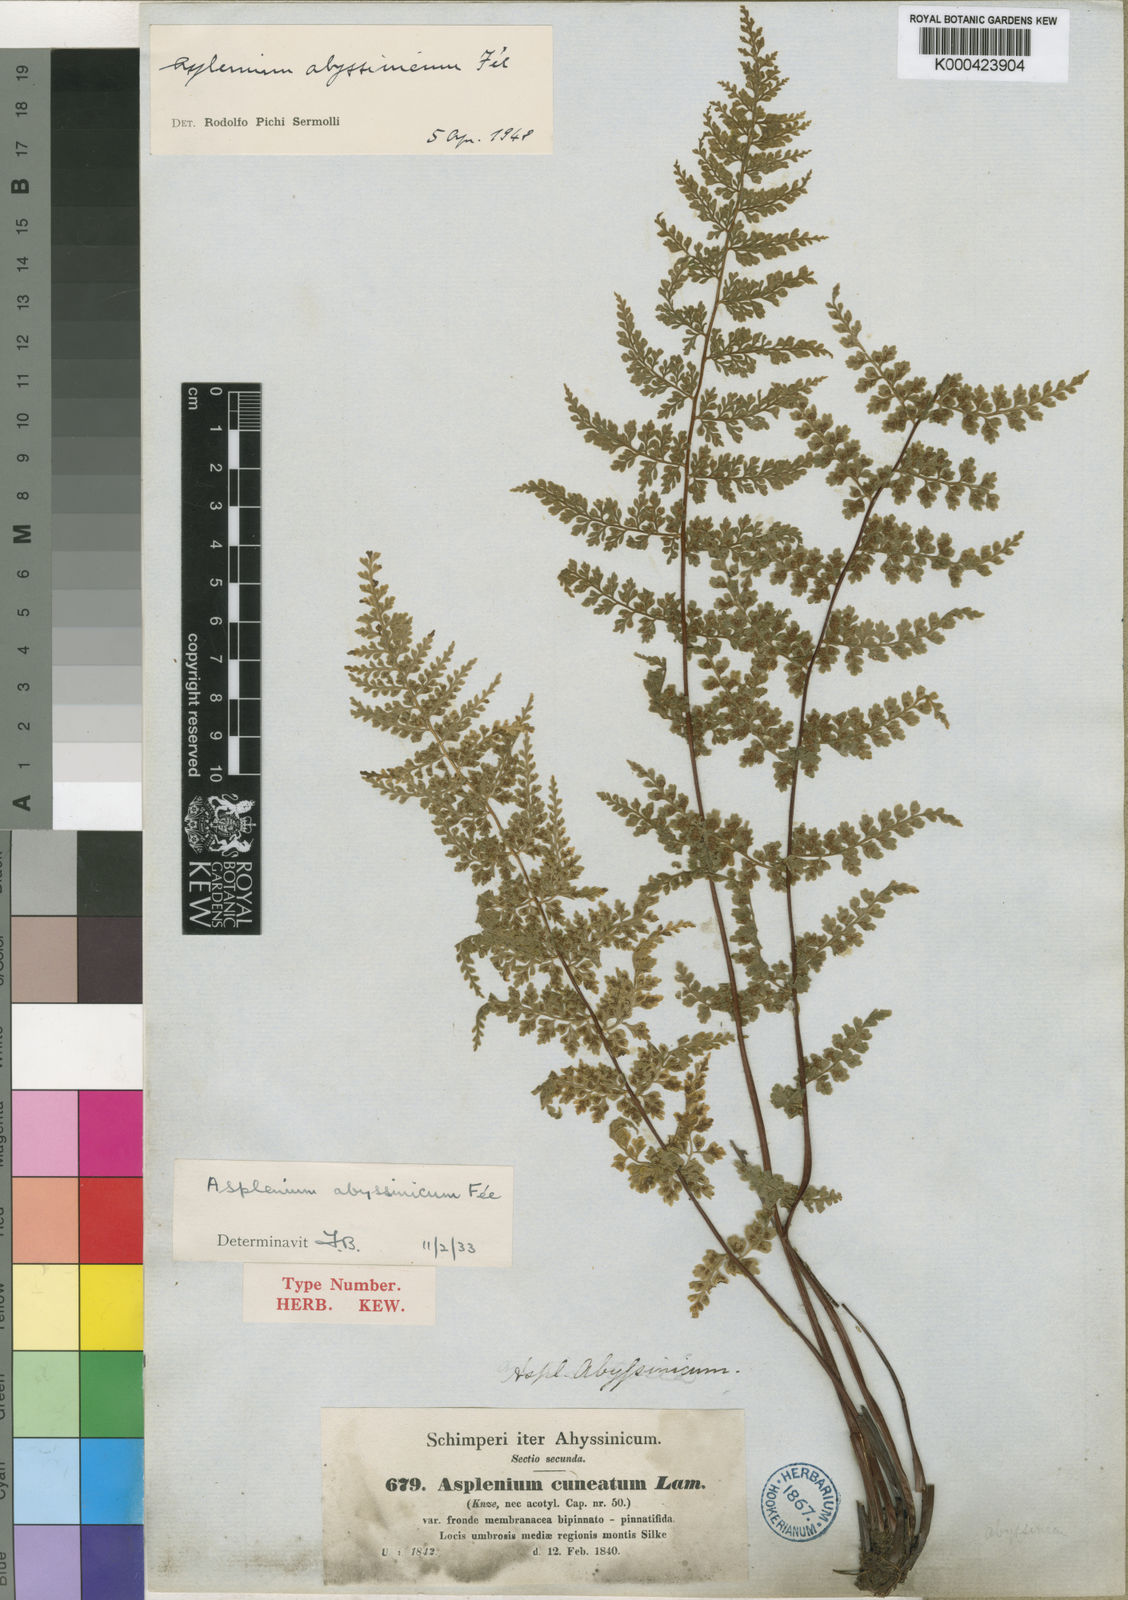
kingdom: Plantae
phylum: Tracheophyta
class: Polypodiopsida
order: Polypodiales
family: Aspleniaceae
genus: Asplenium
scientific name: Asplenium
